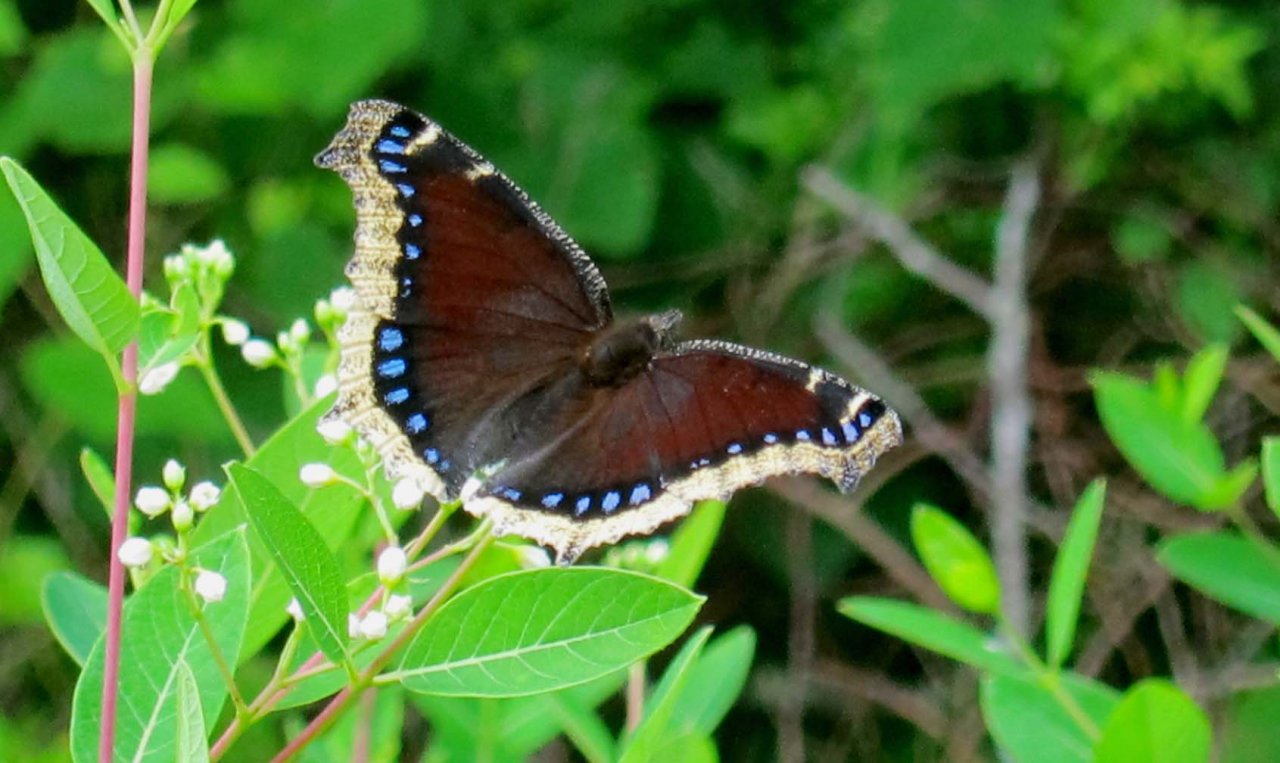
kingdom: Animalia
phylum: Arthropoda
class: Insecta
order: Lepidoptera
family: Nymphalidae
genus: Nymphalis
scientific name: Nymphalis antiopa
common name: Mourning Cloak
